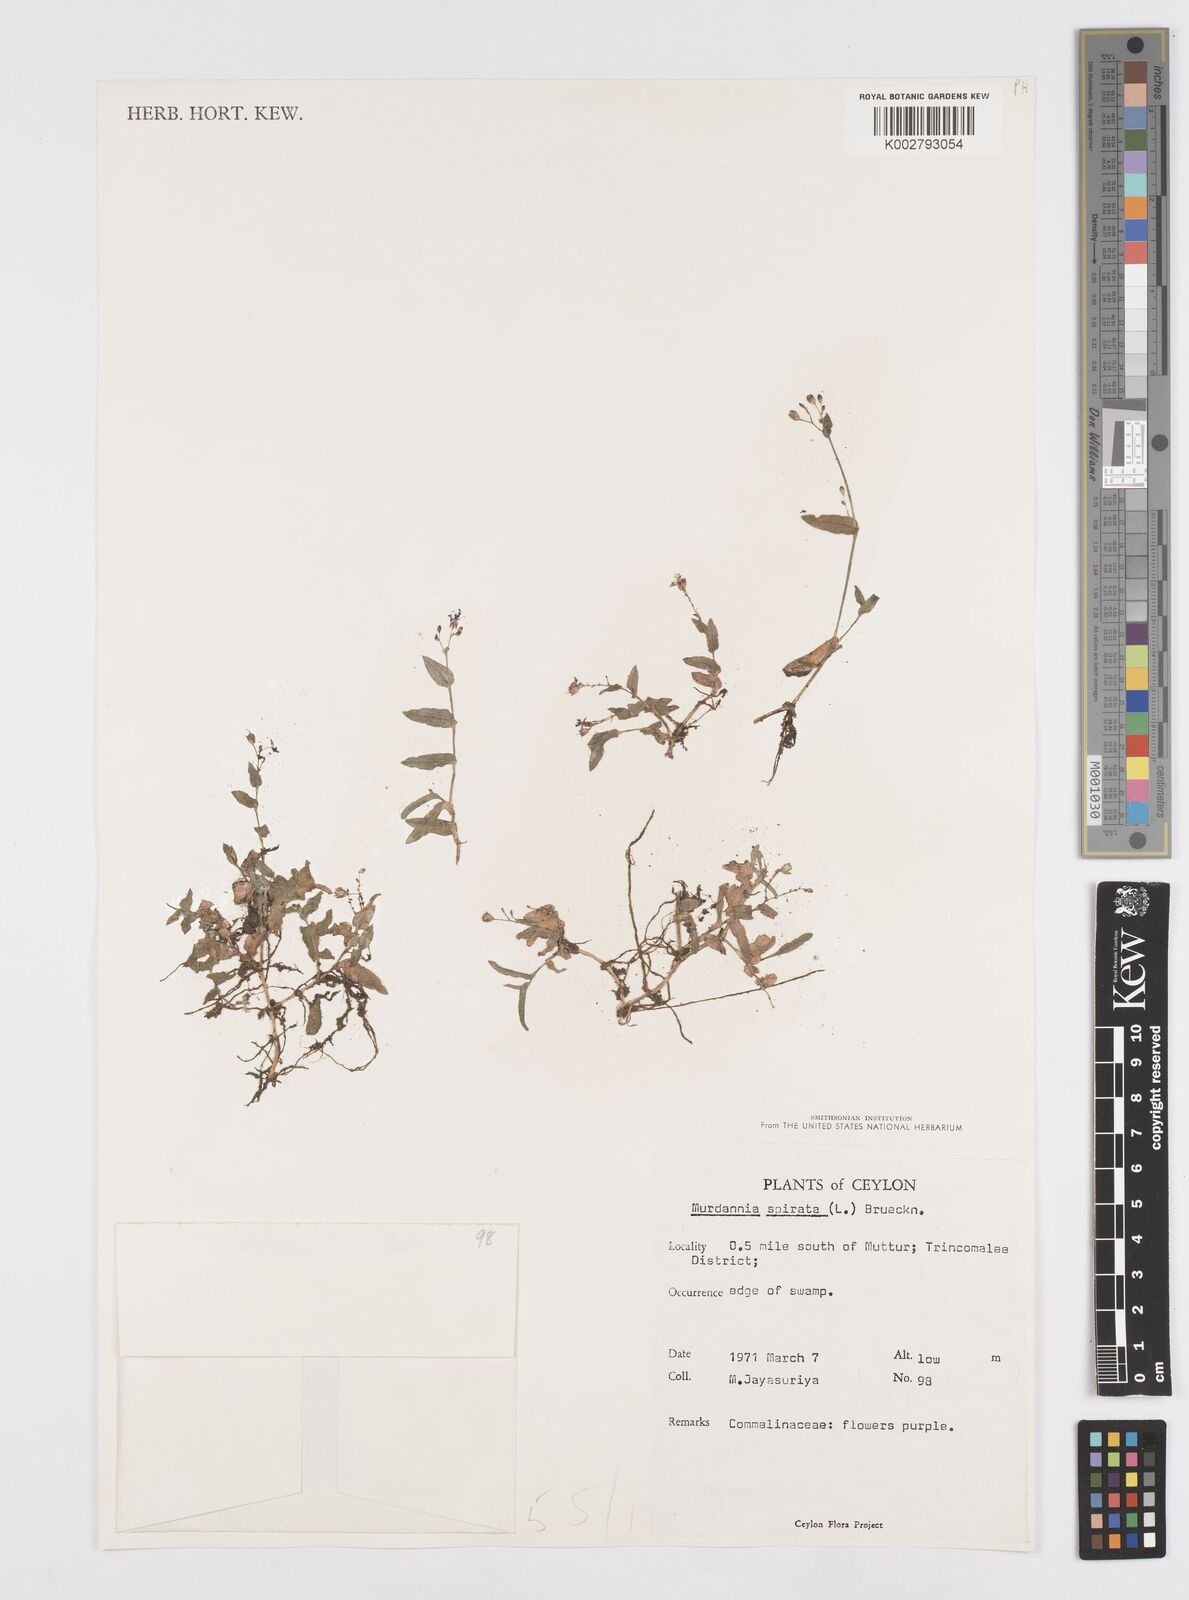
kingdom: Plantae
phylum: Tracheophyta
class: Liliopsida
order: Commelinales
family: Commelinaceae
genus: Murdannia
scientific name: Murdannia spirata
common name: Asiatic dewflower
